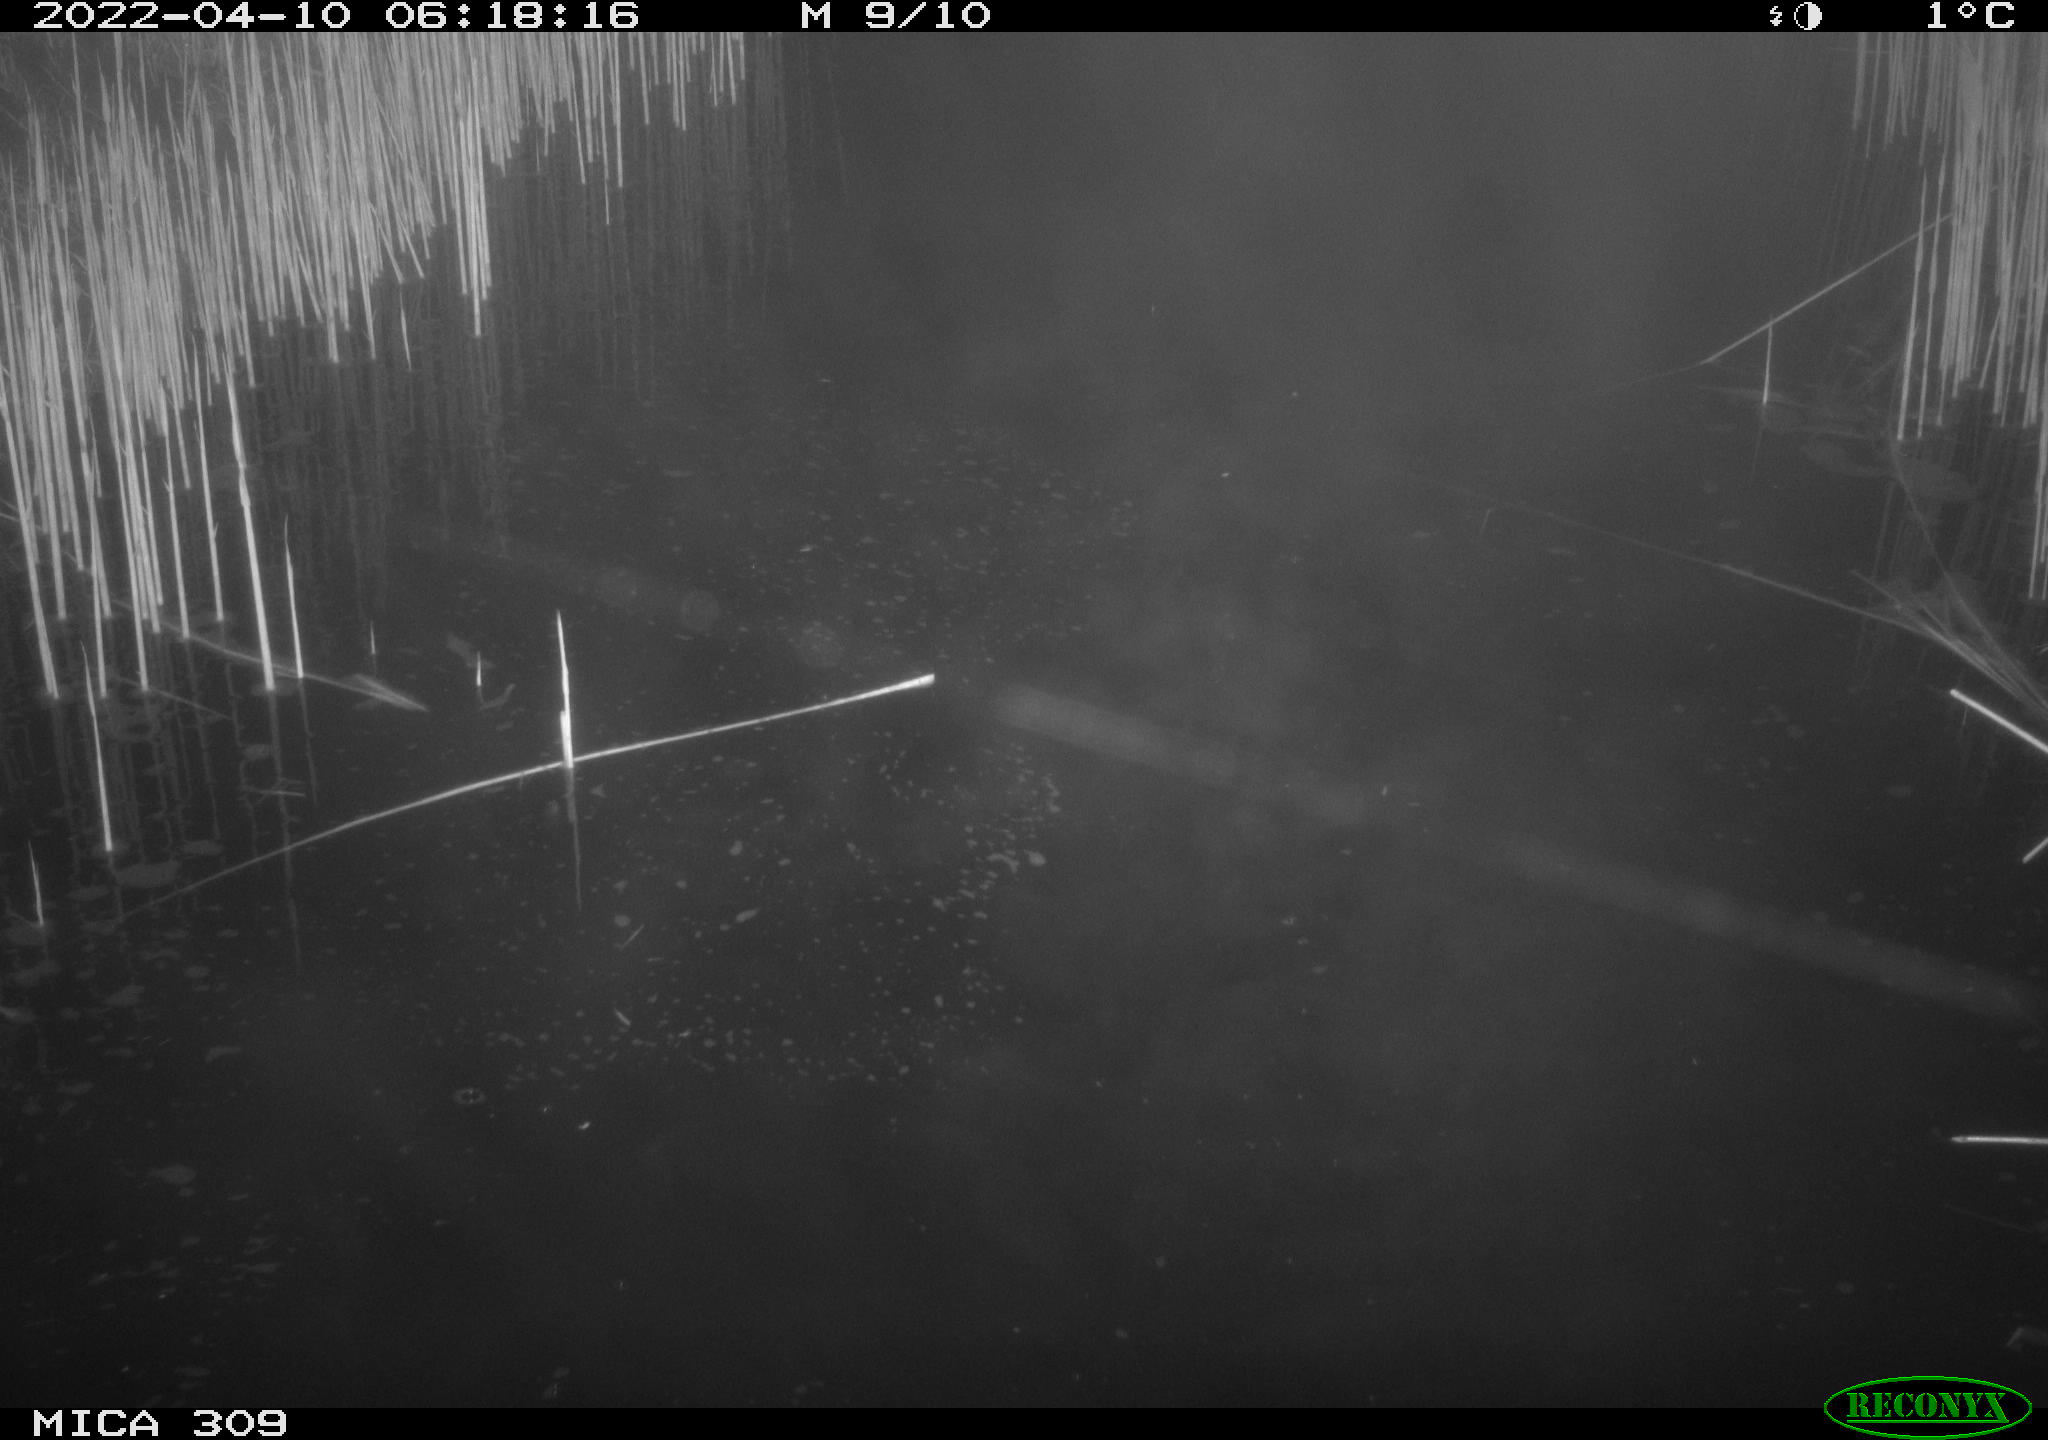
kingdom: Animalia
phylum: Chordata
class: Aves
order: Anseriformes
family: Anatidae
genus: Anas
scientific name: Anas platyrhynchos
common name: Mallard
